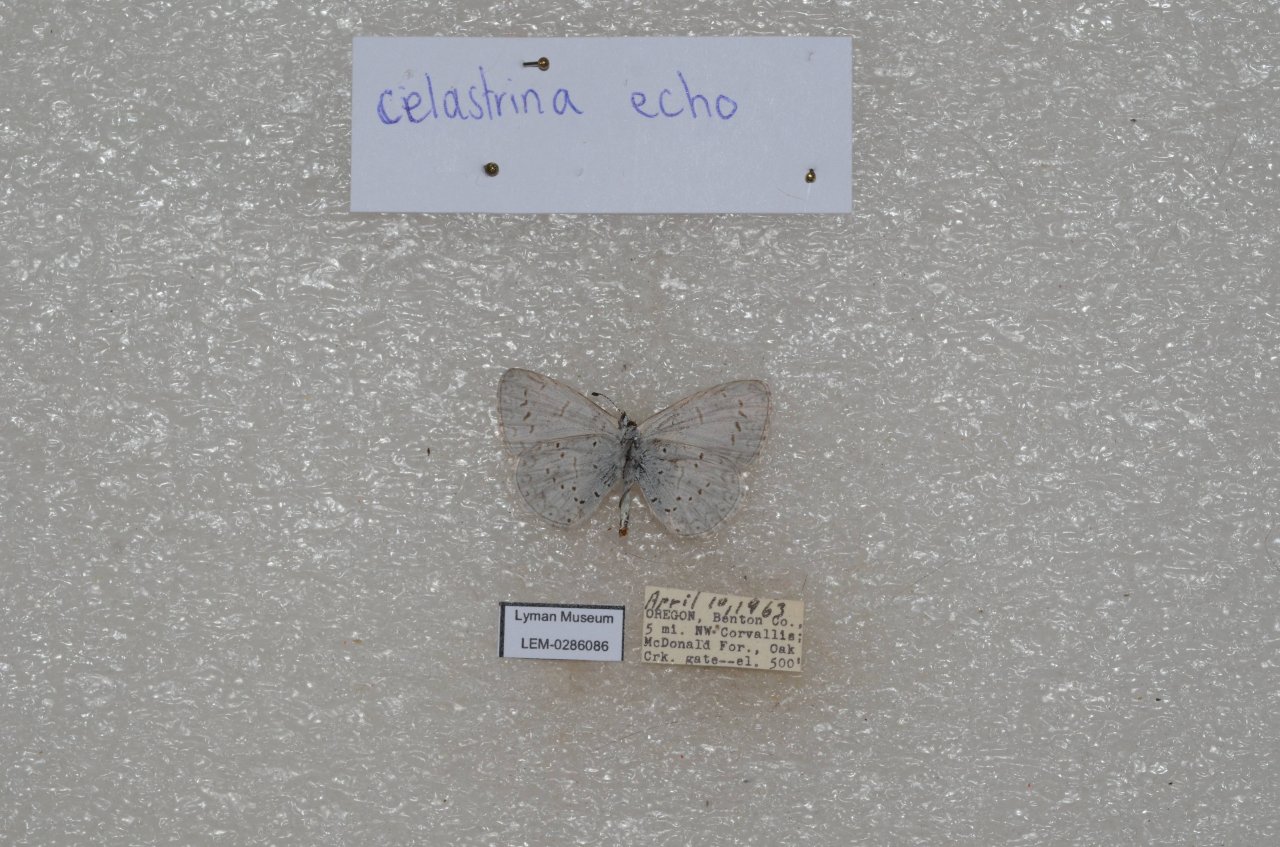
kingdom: Animalia
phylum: Arthropoda
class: Insecta
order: Lepidoptera
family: Lycaenidae
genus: Celastrina
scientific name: Celastrina ladon
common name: Echo Azure
